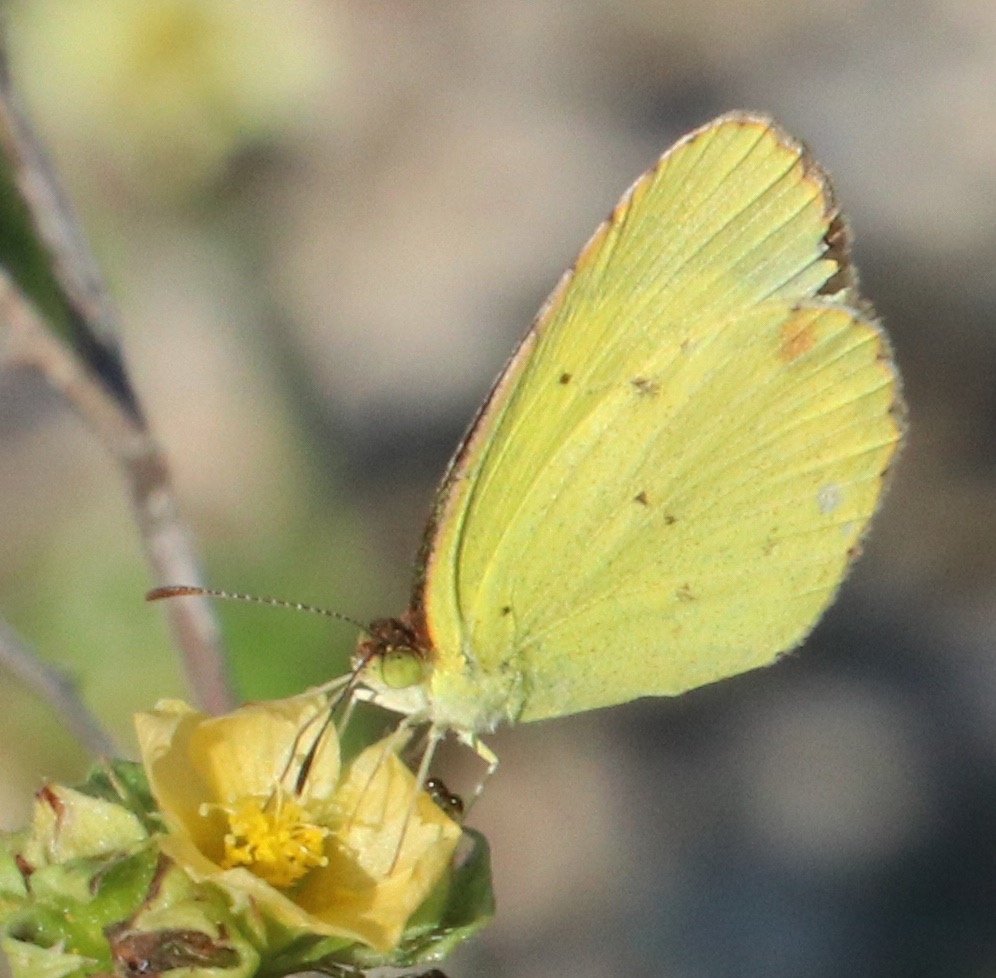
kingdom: Animalia
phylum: Arthropoda
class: Insecta
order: Lepidoptera
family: Pieridae
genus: Pyrisitia
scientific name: Pyrisitia lisa
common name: Little Yellow
